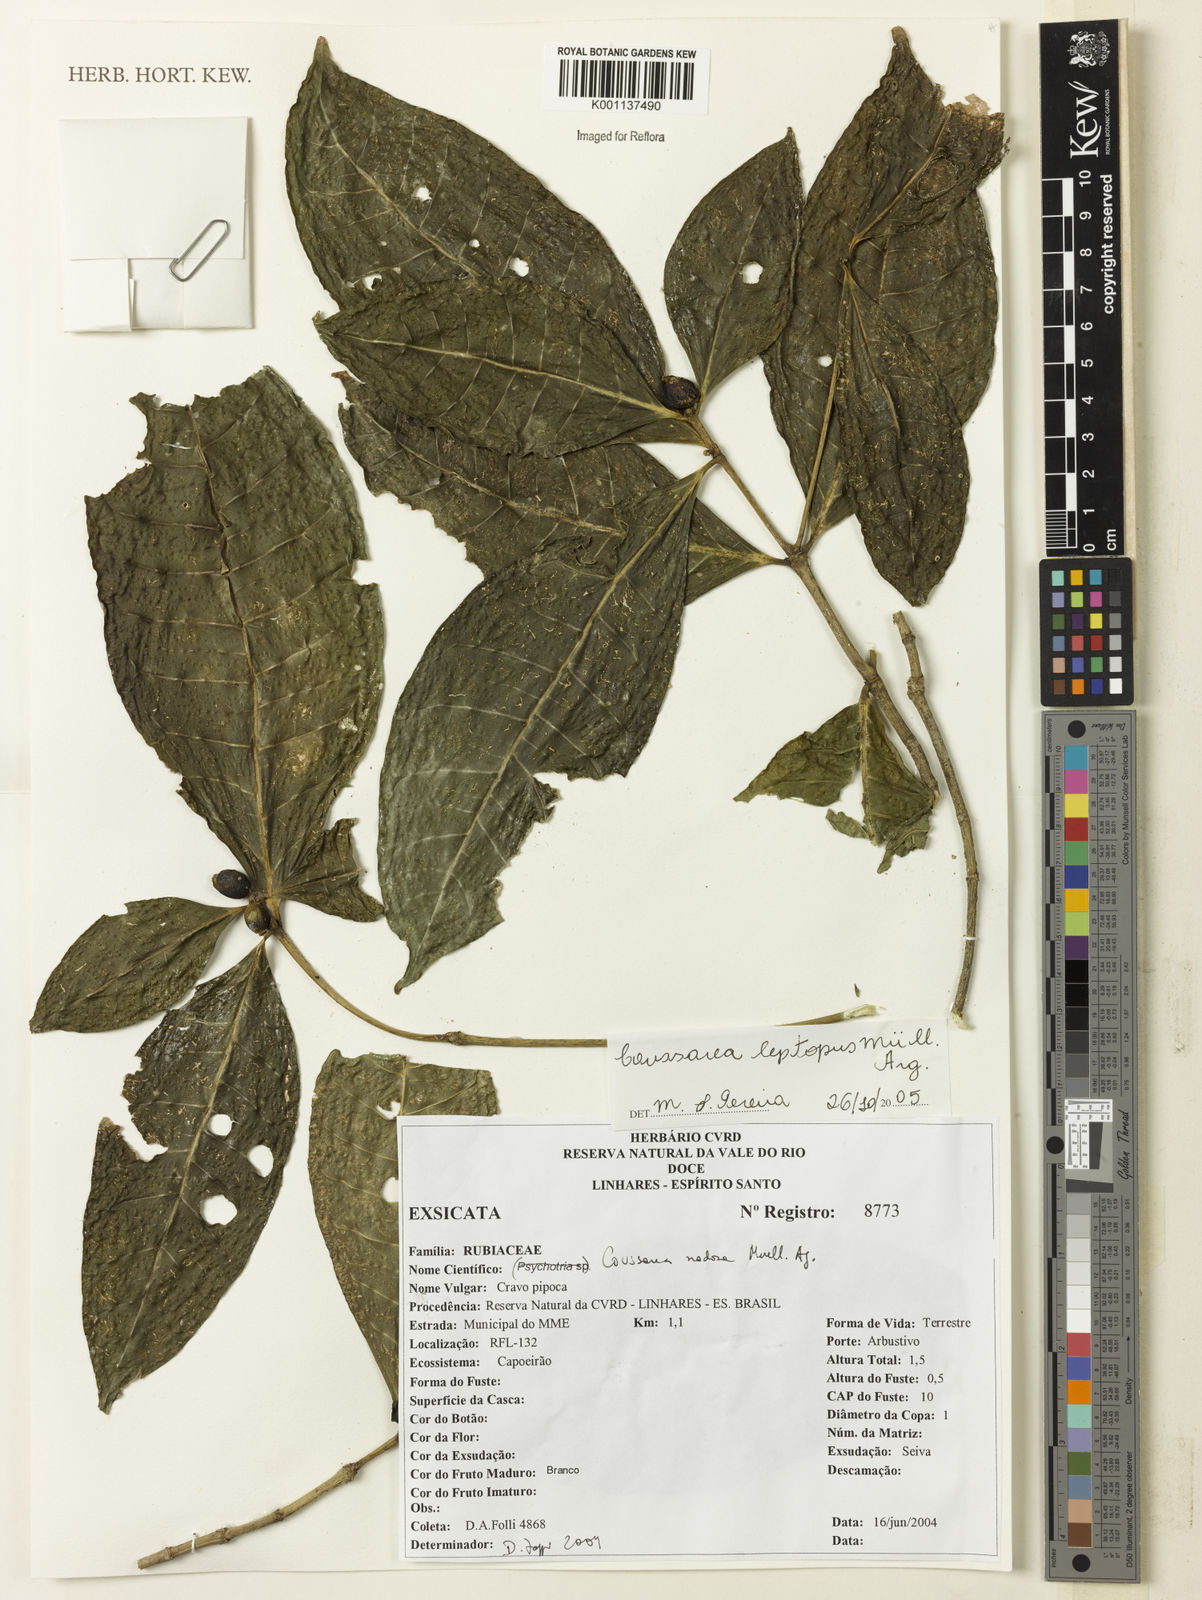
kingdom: Plantae
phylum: Tracheophyta
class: Magnoliopsida
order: Gentianales
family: Rubiaceae
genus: Coussarea
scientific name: Coussarea
